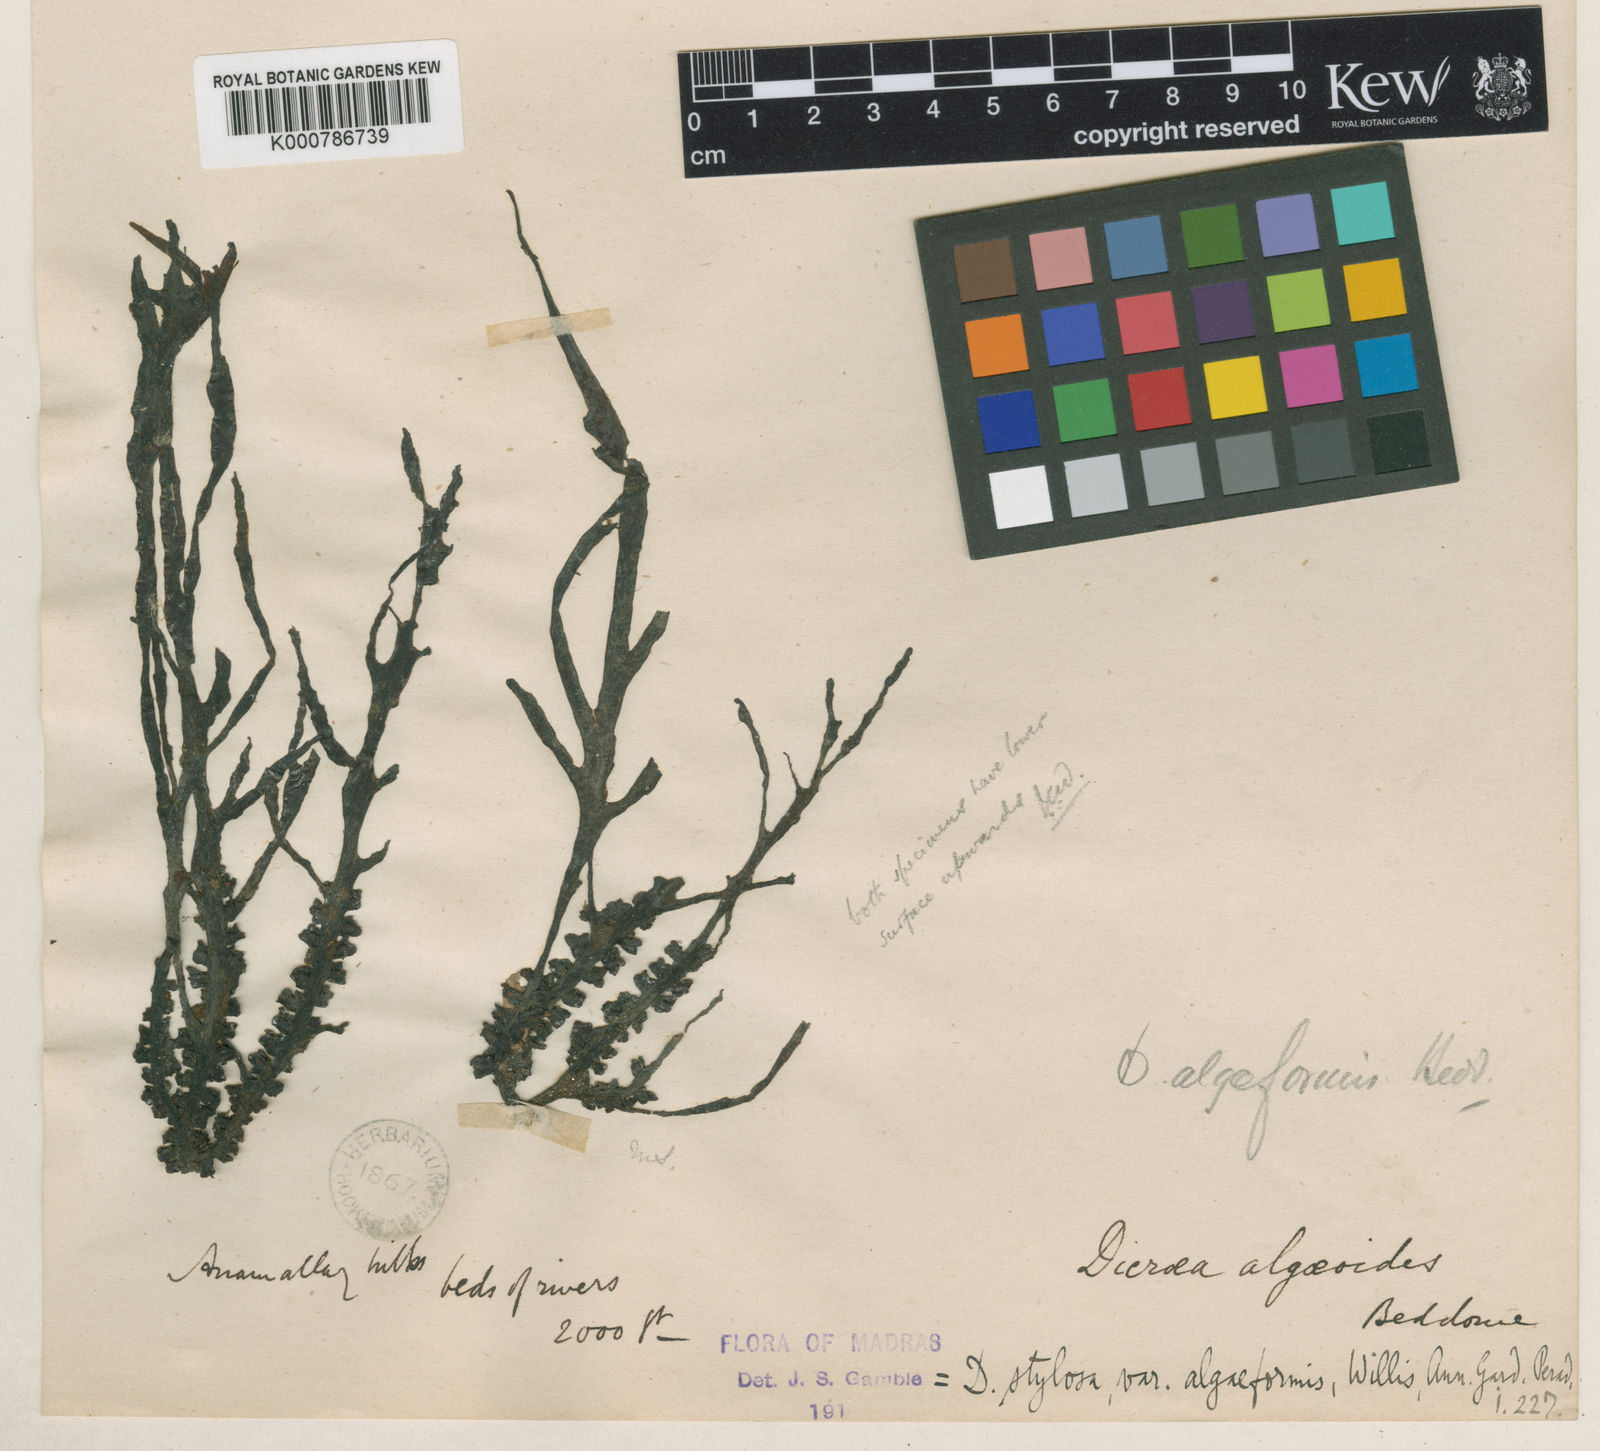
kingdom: Plantae
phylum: Tracheophyta
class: Magnoliopsida
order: Malpighiales
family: Podostemaceae
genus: Polypleurum
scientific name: Polypleurum wallichii
